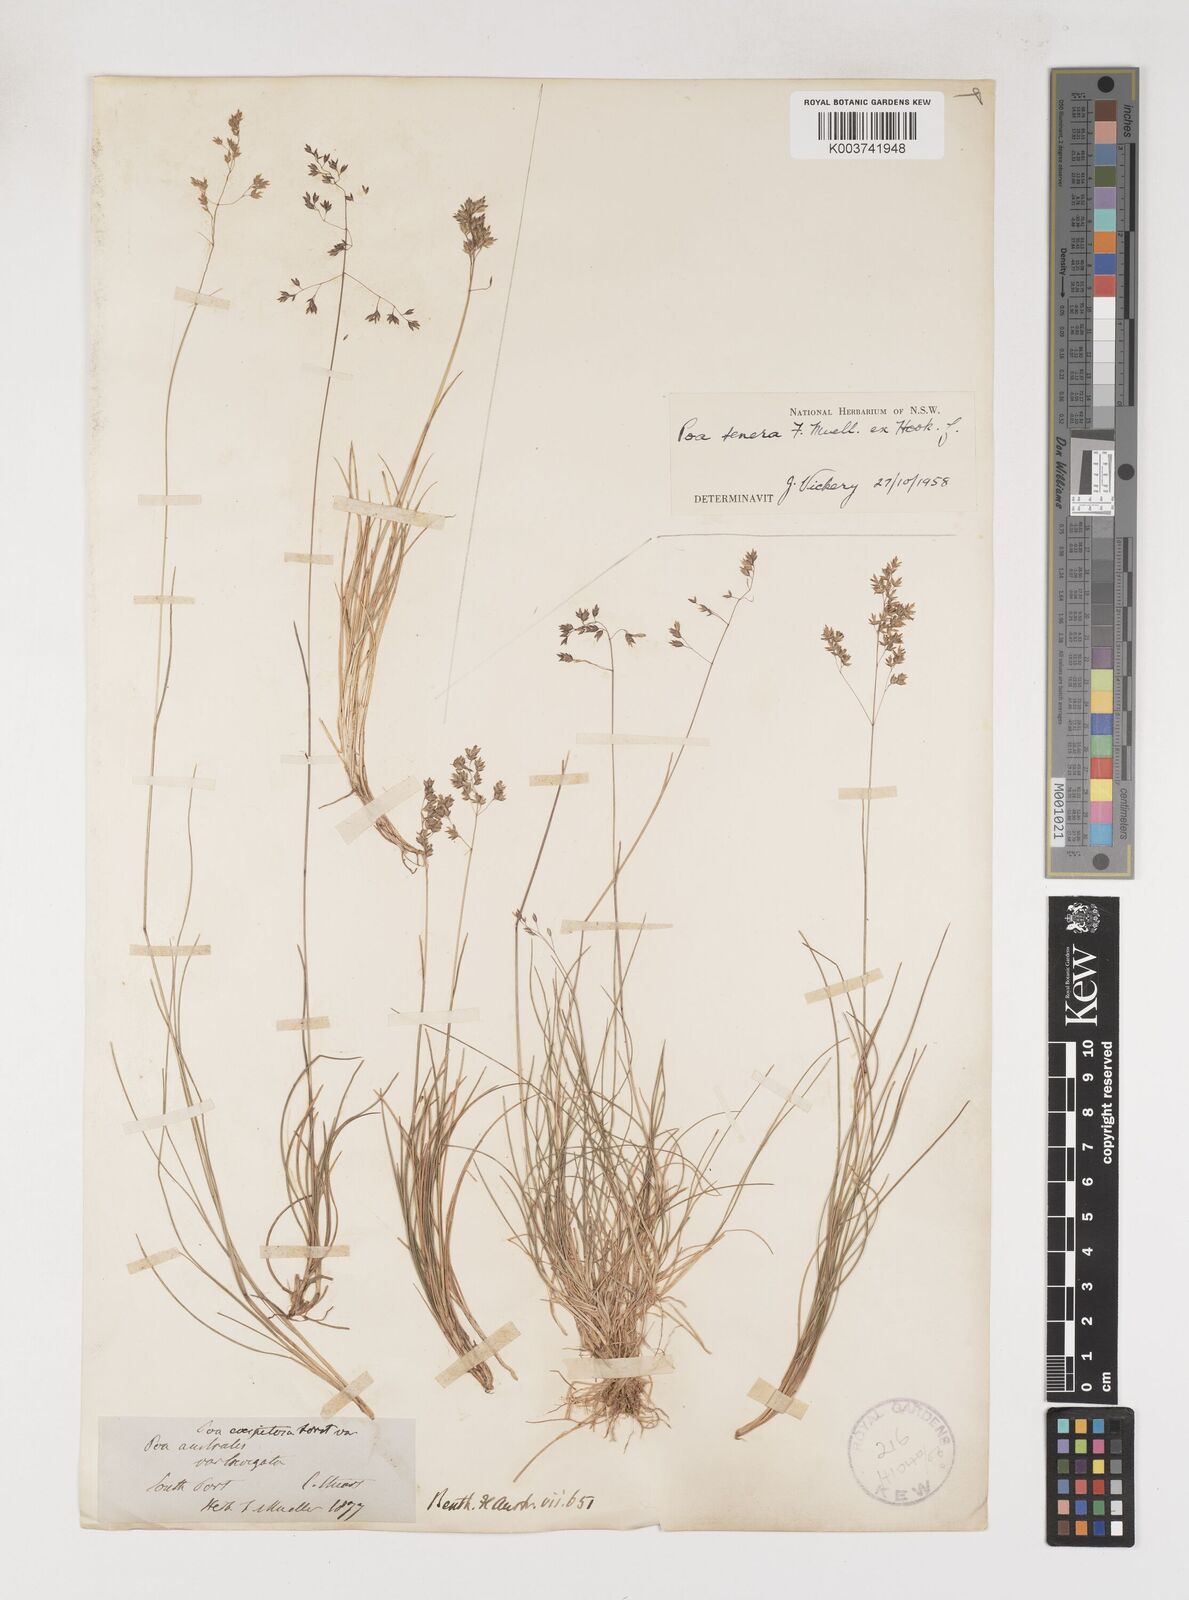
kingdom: Plantae
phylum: Tracheophyta
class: Liliopsida
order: Poales
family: Poaceae
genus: Poa
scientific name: Poa tenera
